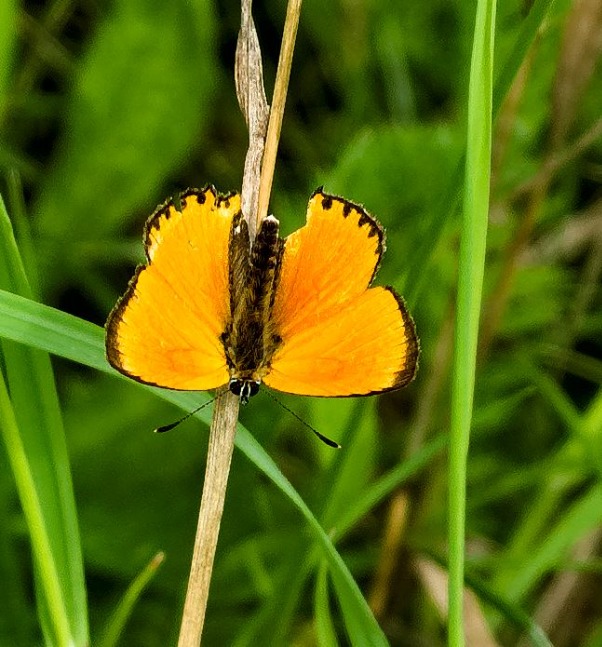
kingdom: Animalia
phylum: Arthropoda
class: Insecta
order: Lepidoptera
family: Lycaenidae
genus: Lycaena
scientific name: Lycaena virgaureae
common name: Dukatsommerfugl
